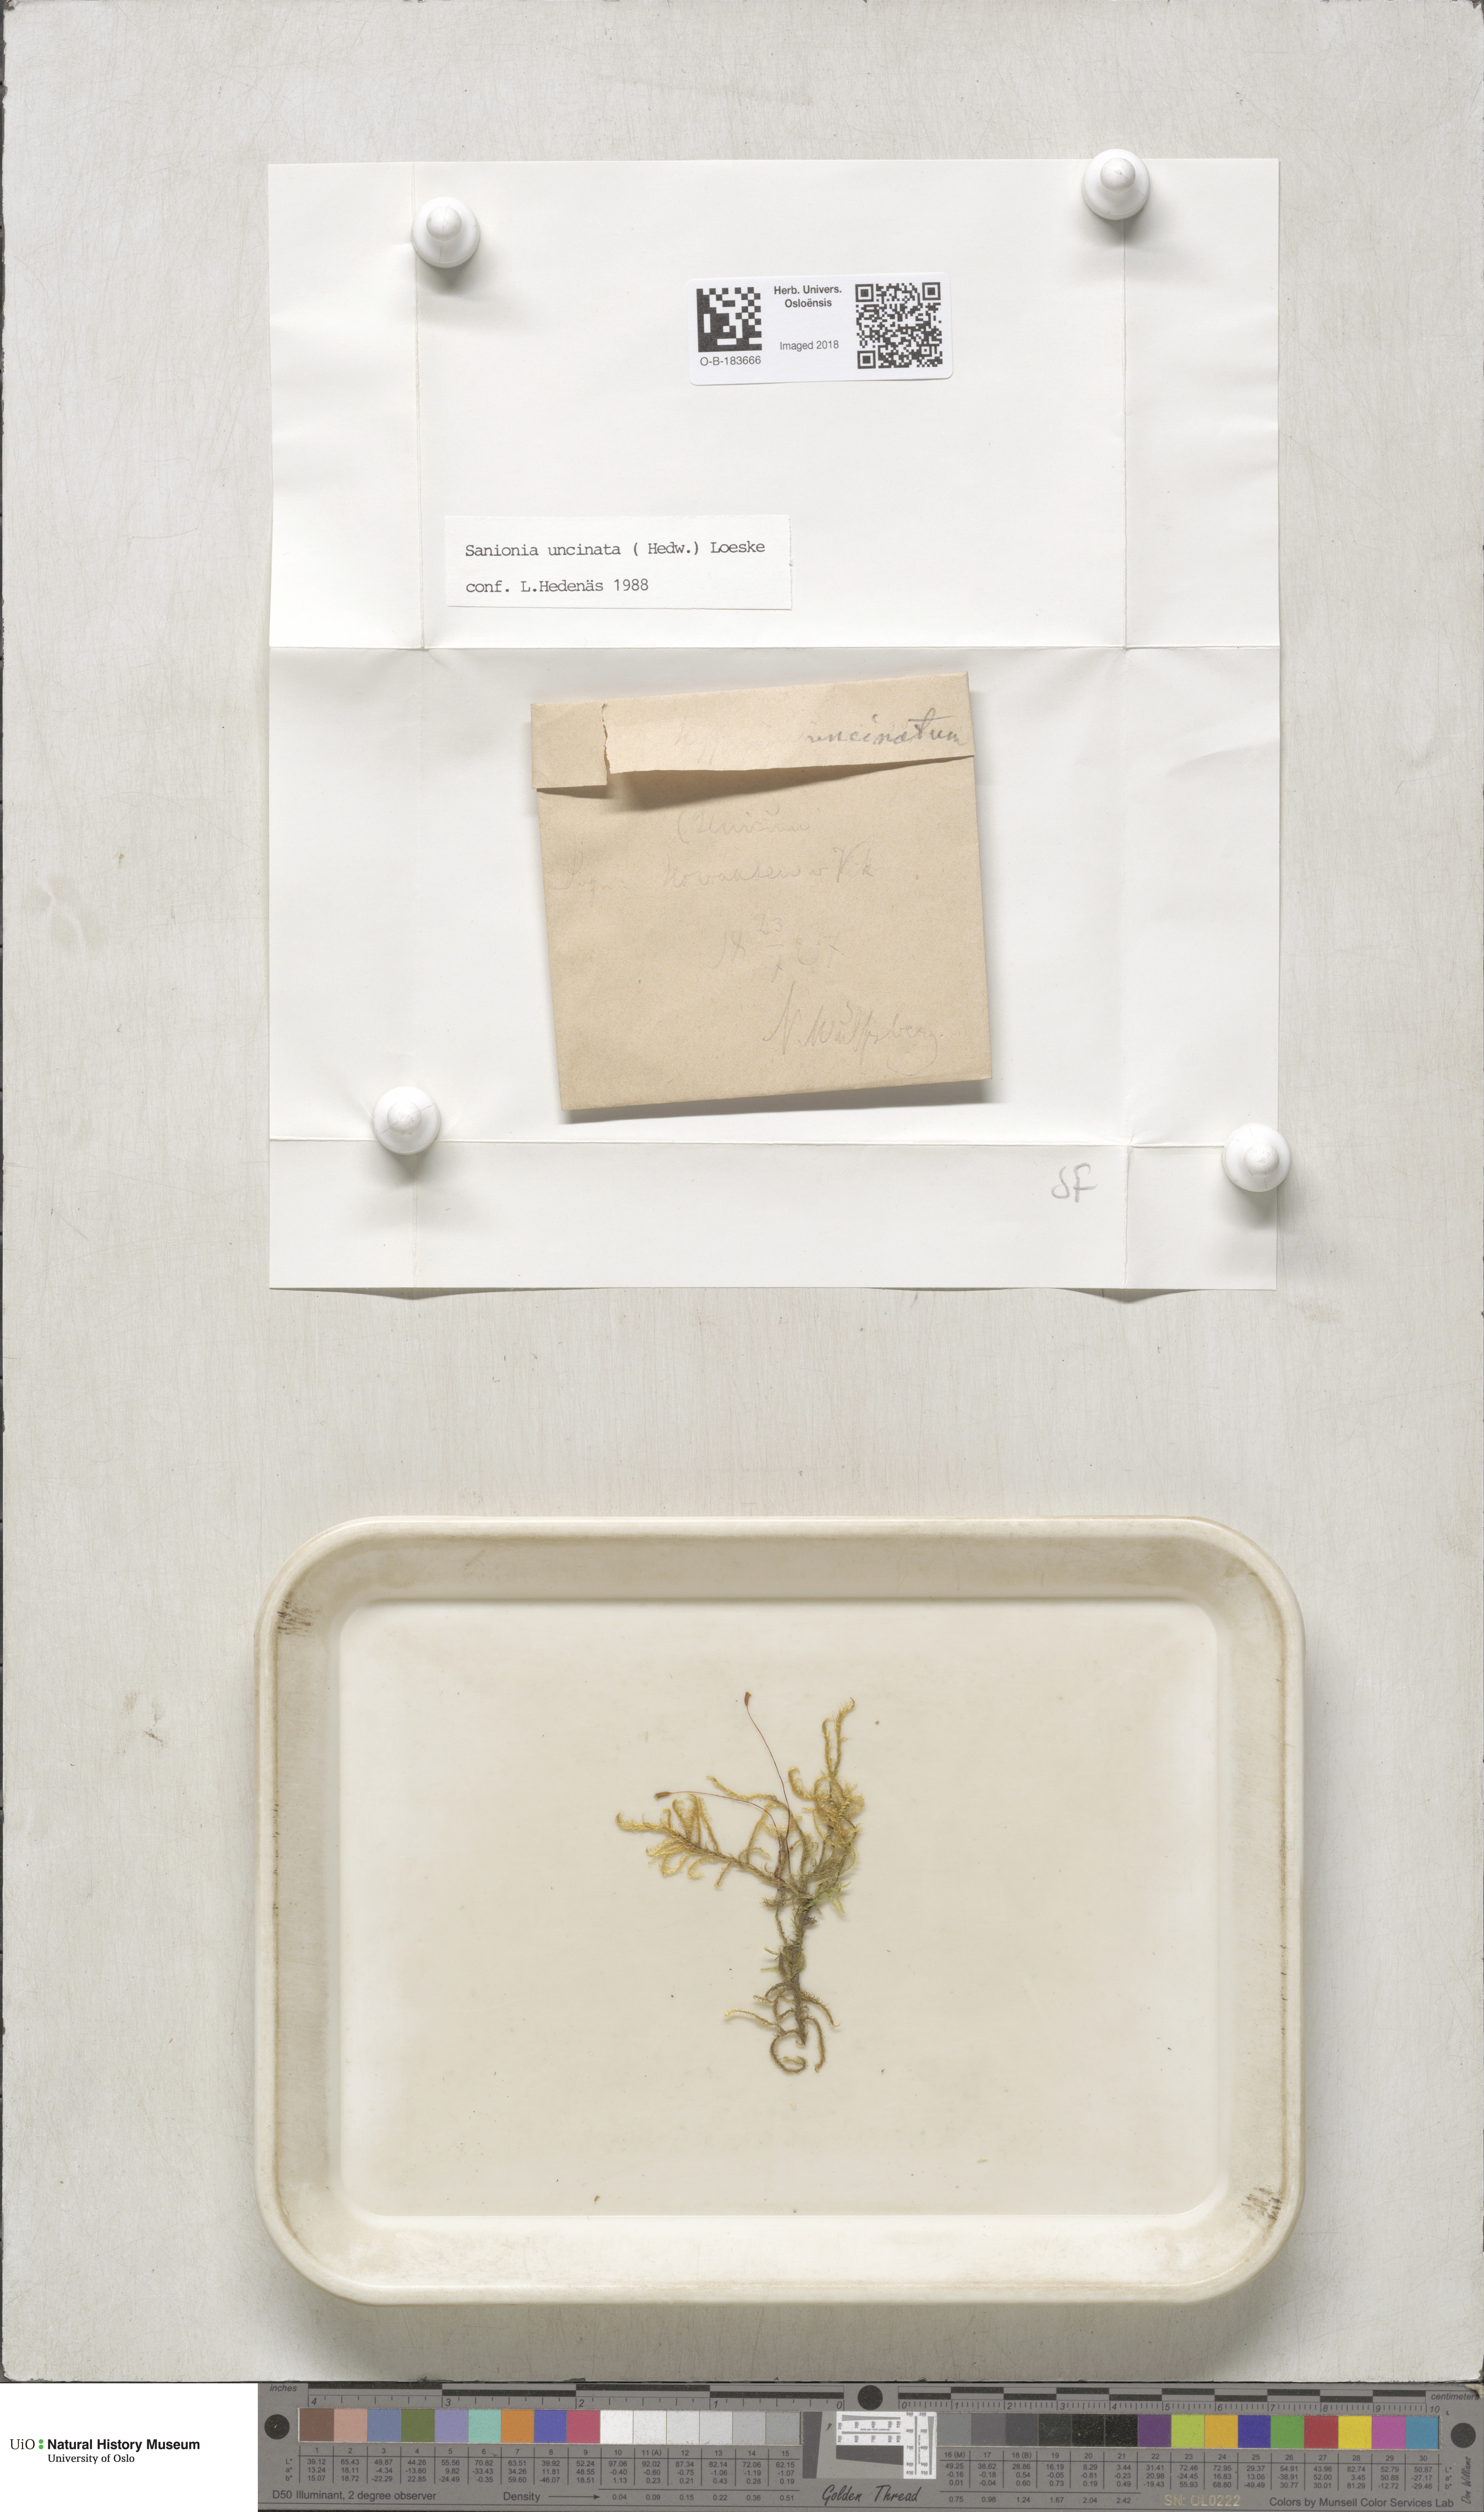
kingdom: Plantae
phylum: Bryophyta
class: Bryopsida
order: Hypnales
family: Scorpidiaceae
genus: Sanionia
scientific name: Sanionia uncinata
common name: Sickle moss
